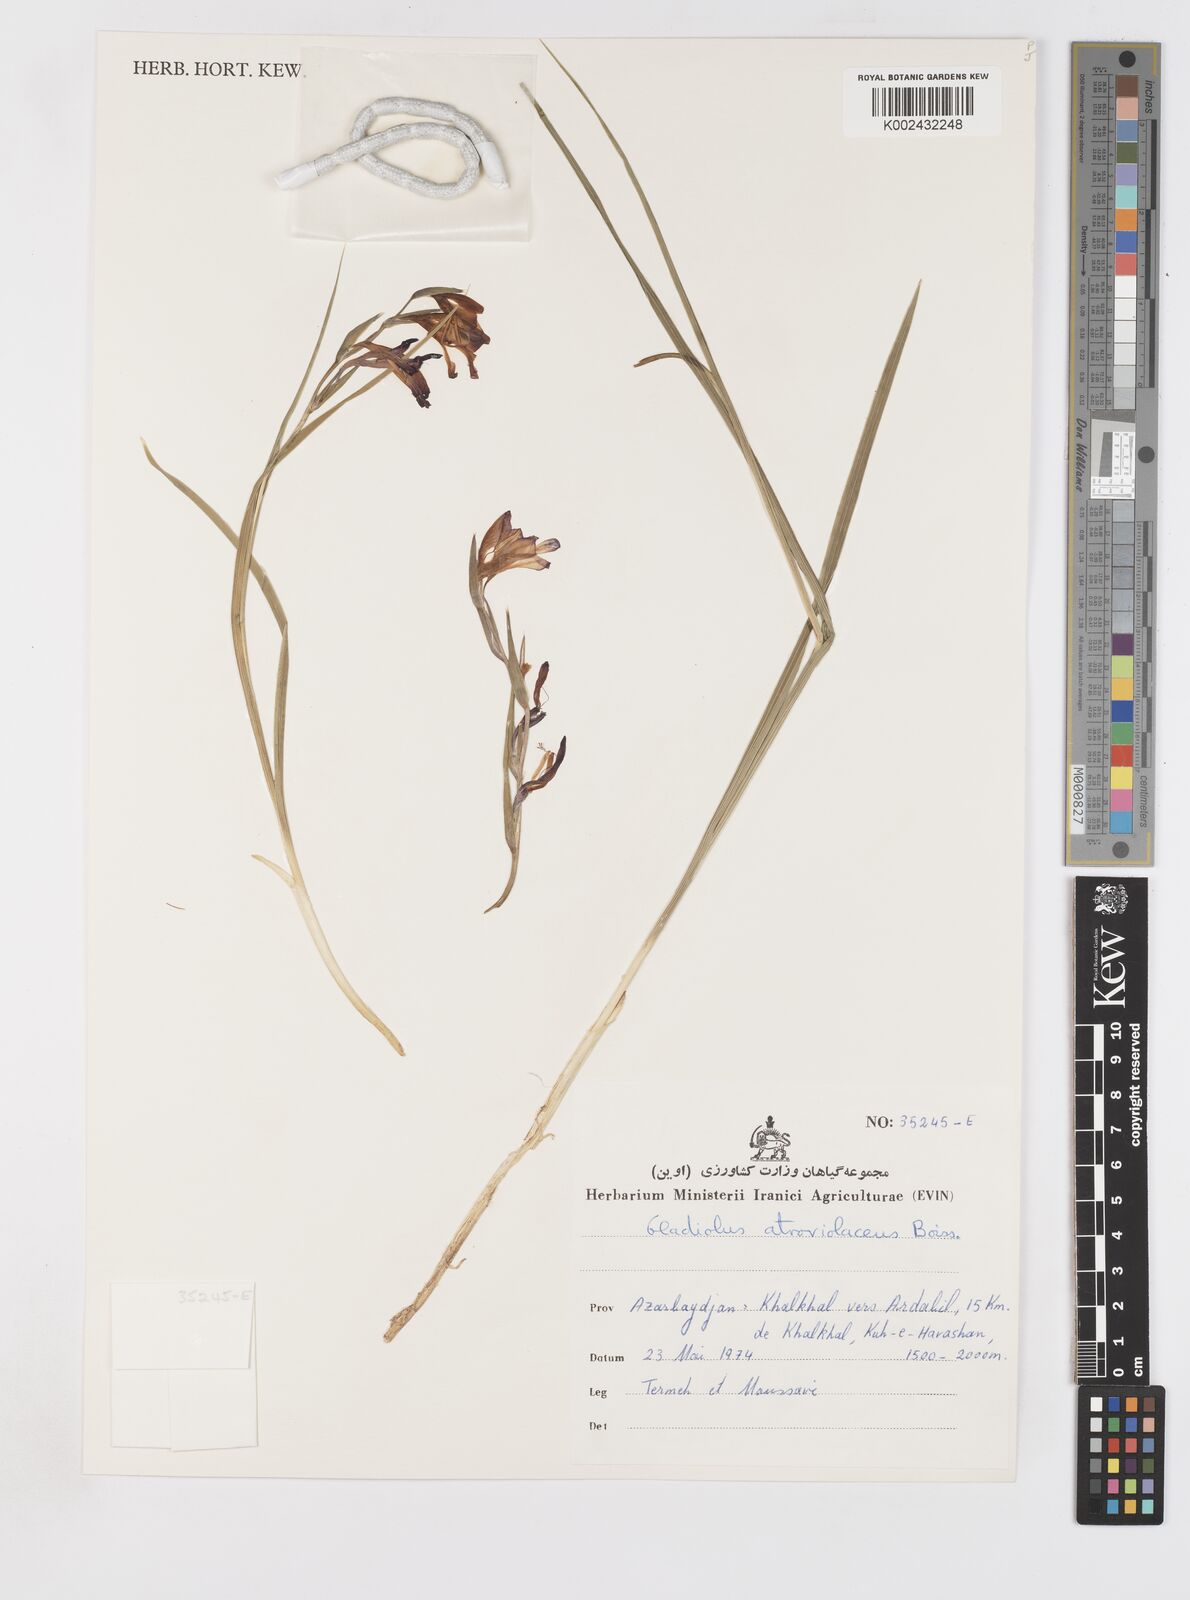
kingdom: Plantae
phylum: Tracheophyta
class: Liliopsida
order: Asparagales
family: Iridaceae
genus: Gladiolus
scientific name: Gladiolus atroviolaceus
